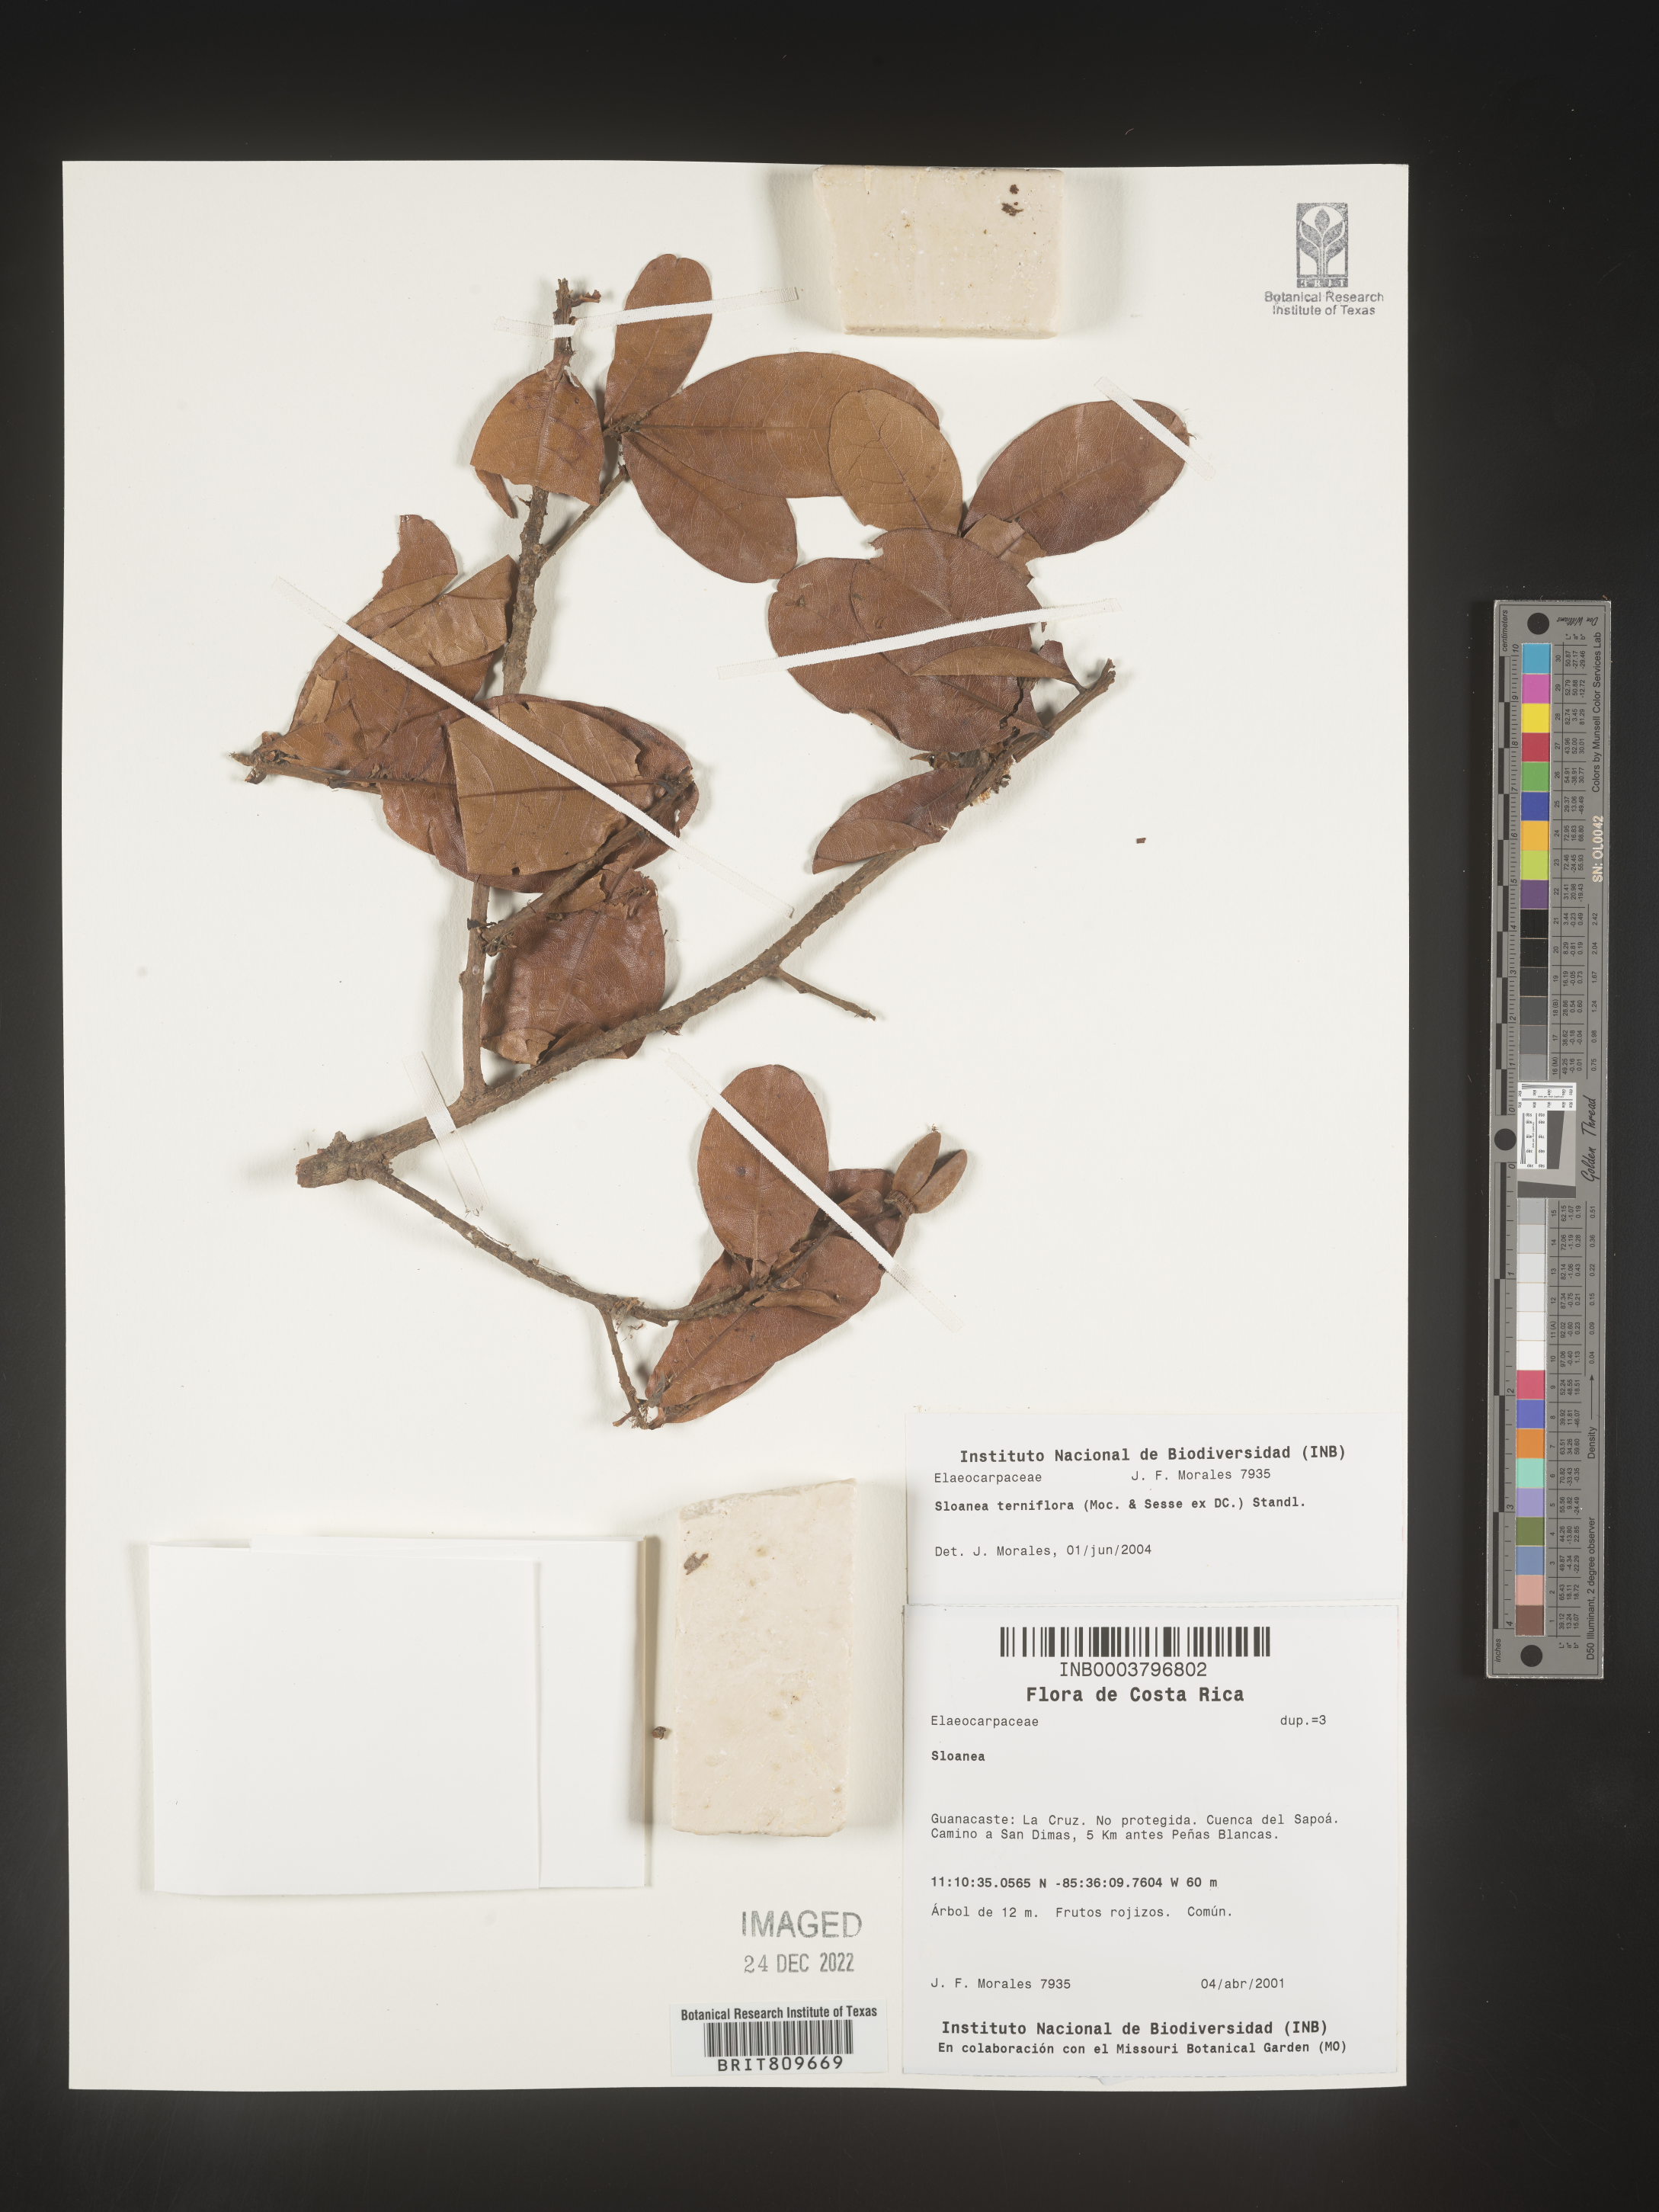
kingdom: Plantae
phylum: Tracheophyta
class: Magnoliopsida
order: Oxalidales
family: Elaeocarpaceae
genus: Sloanea
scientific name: Sloanea
